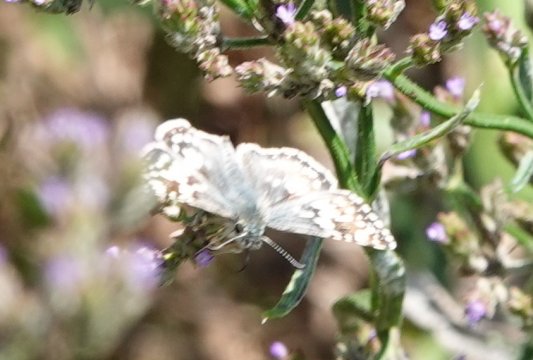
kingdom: Animalia
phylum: Arthropoda
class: Insecta
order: Lepidoptera
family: Hesperiidae
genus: Pyrgus
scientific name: Pyrgus communis
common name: White Checkered-Skipper
